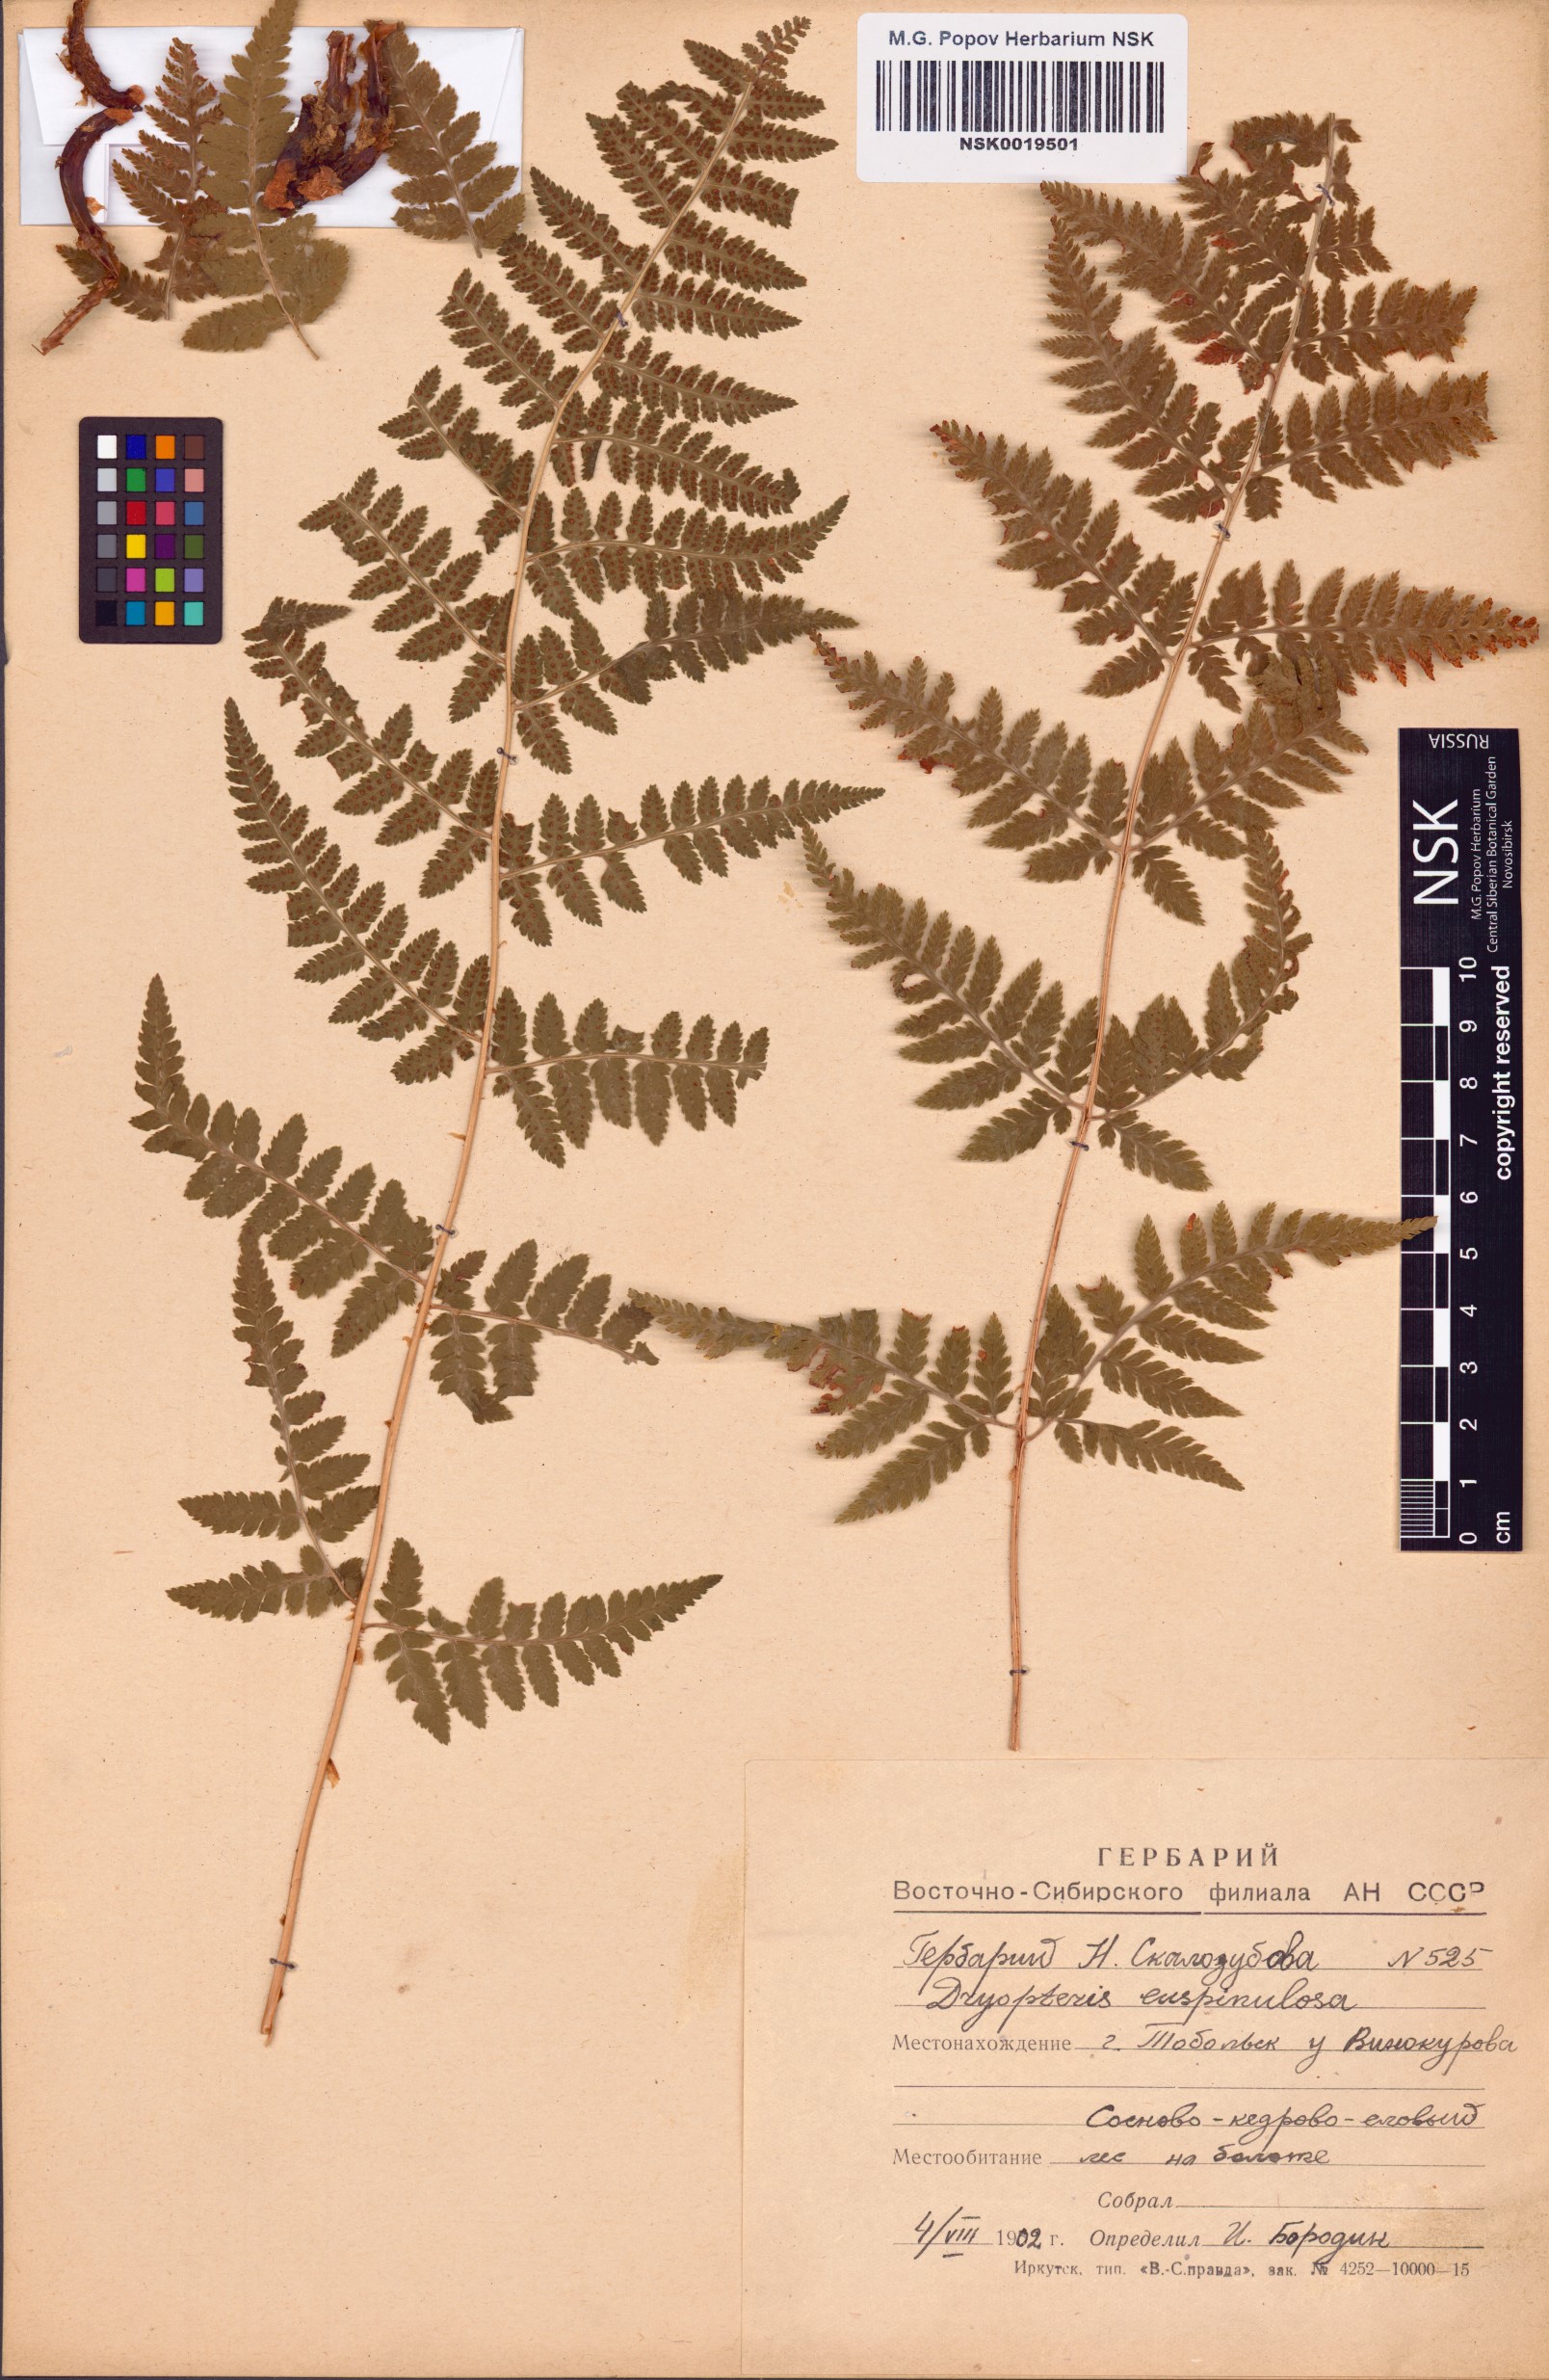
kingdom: Plantae
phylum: Tracheophyta
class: Polypodiopsida
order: Polypodiales
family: Dryopteridaceae
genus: Dryopteris
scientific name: Dryopteris carthusiana
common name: Narrow buckler-fern
